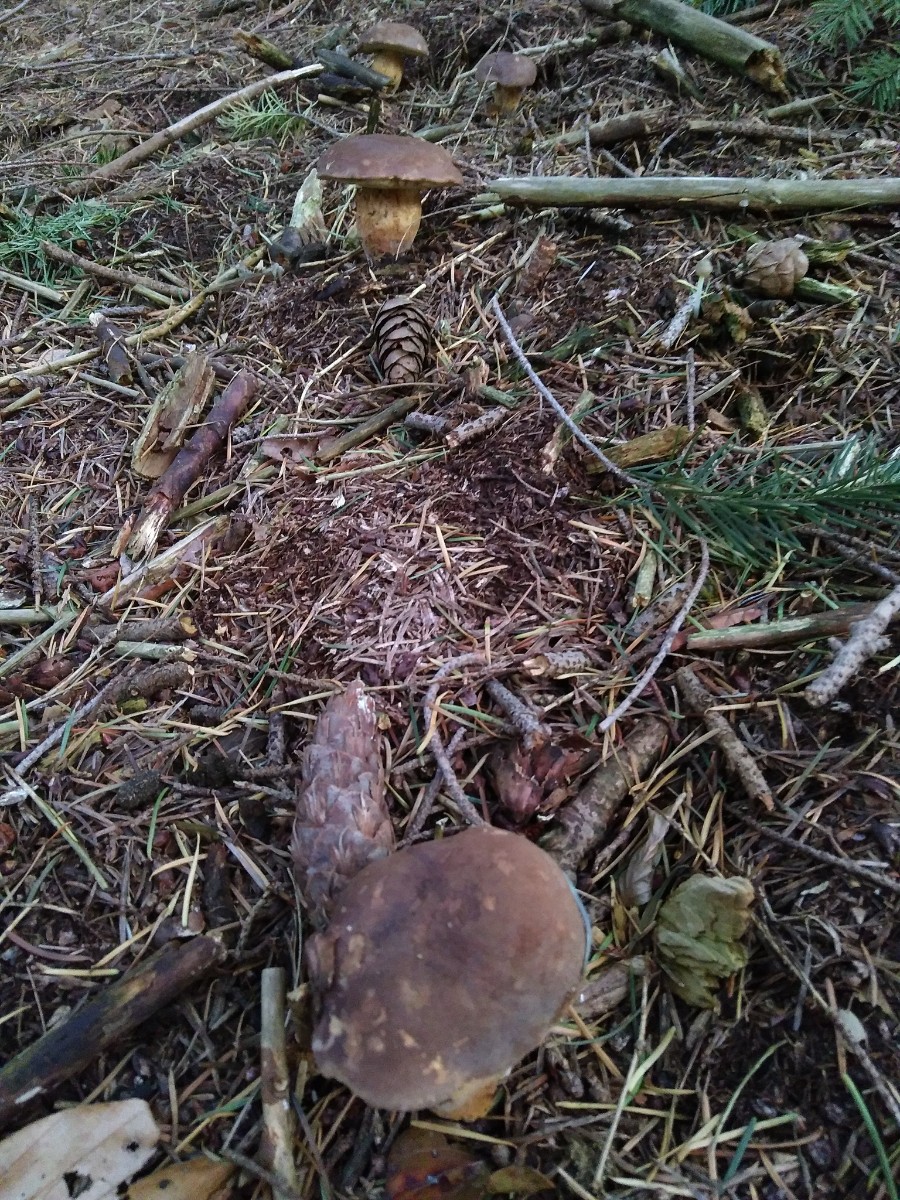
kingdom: Fungi
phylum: Basidiomycota
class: Agaricomycetes
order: Boletales
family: Boletaceae
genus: Imleria
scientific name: Imleria badia
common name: brunstokket rørhat
